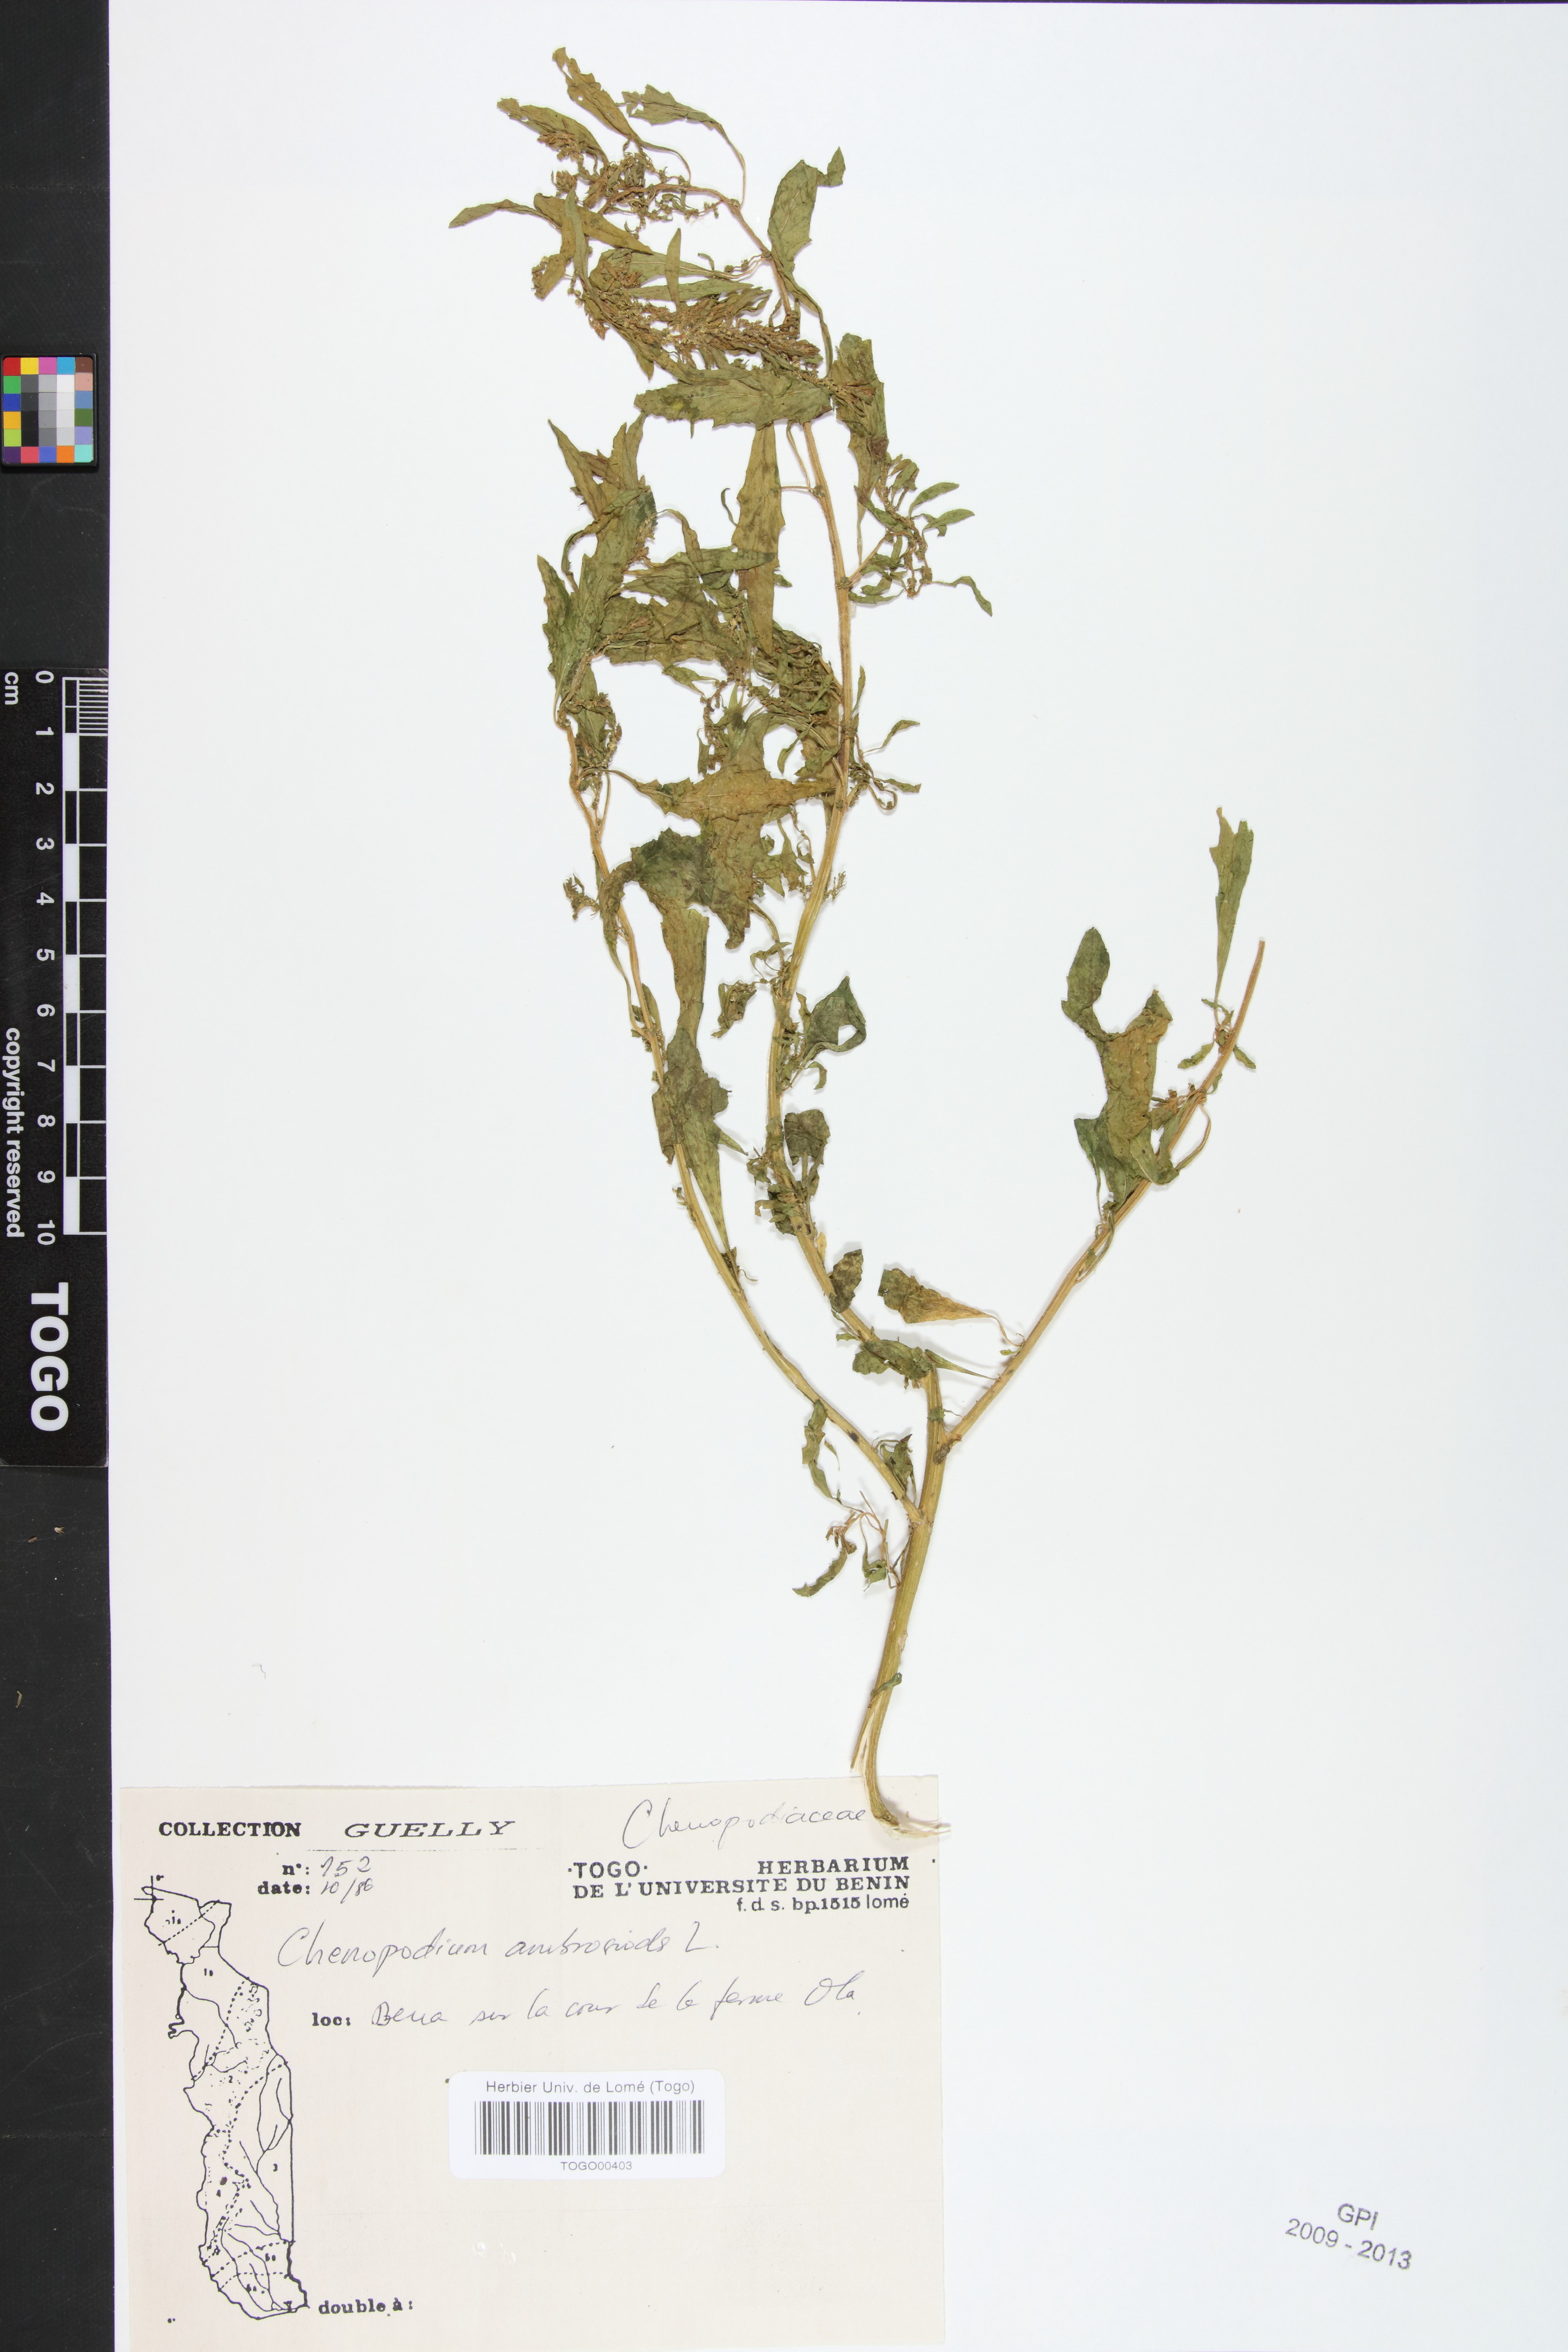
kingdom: Plantae
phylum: Tracheophyta
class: Magnoliopsida
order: Caryophyllales
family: Amaranthaceae
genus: Dysphania
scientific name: Dysphania ambrosioides
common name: Wormseed
